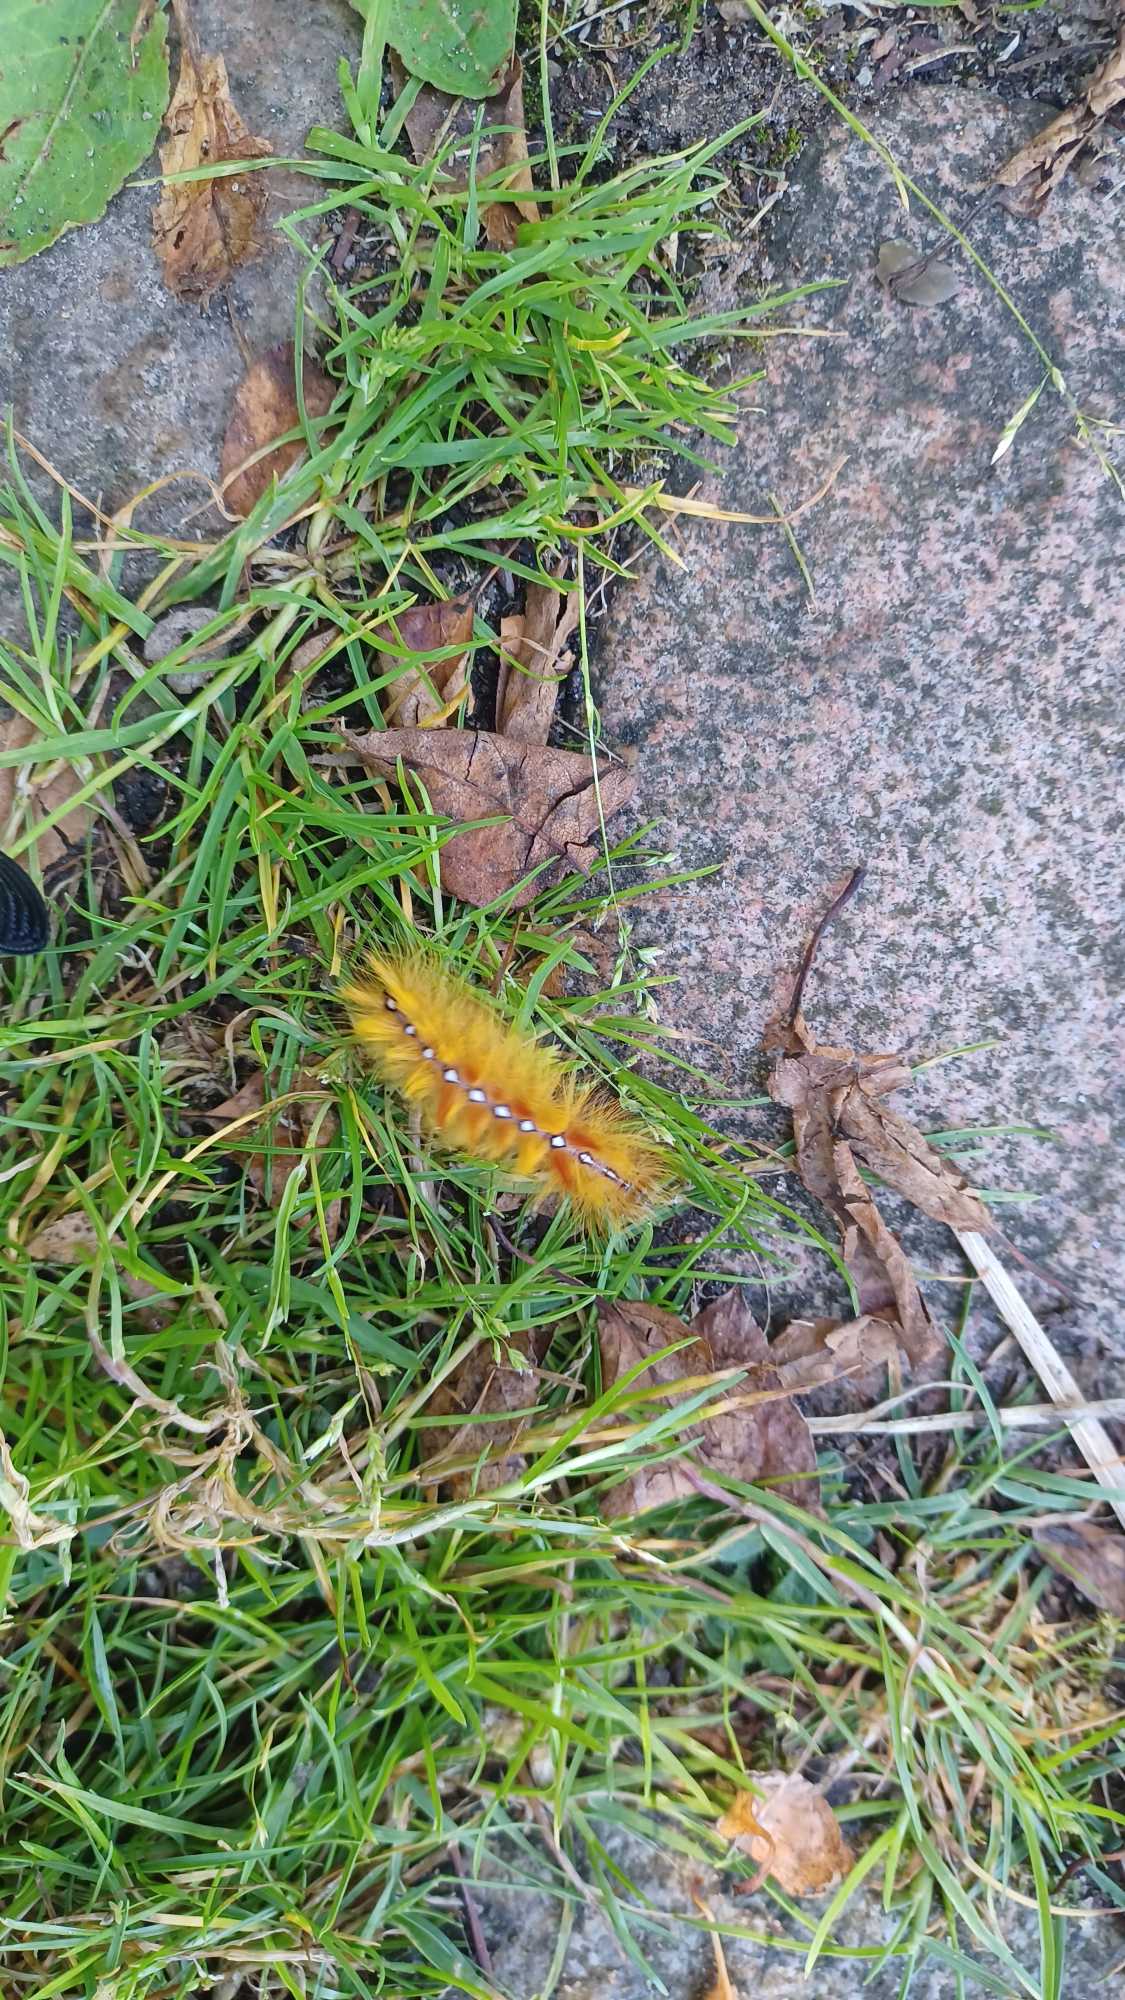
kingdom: Animalia
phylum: Arthropoda
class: Insecta
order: Lepidoptera
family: Noctuidae
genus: Acronicta
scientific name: Acronicta aceris
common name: Ahornugle
